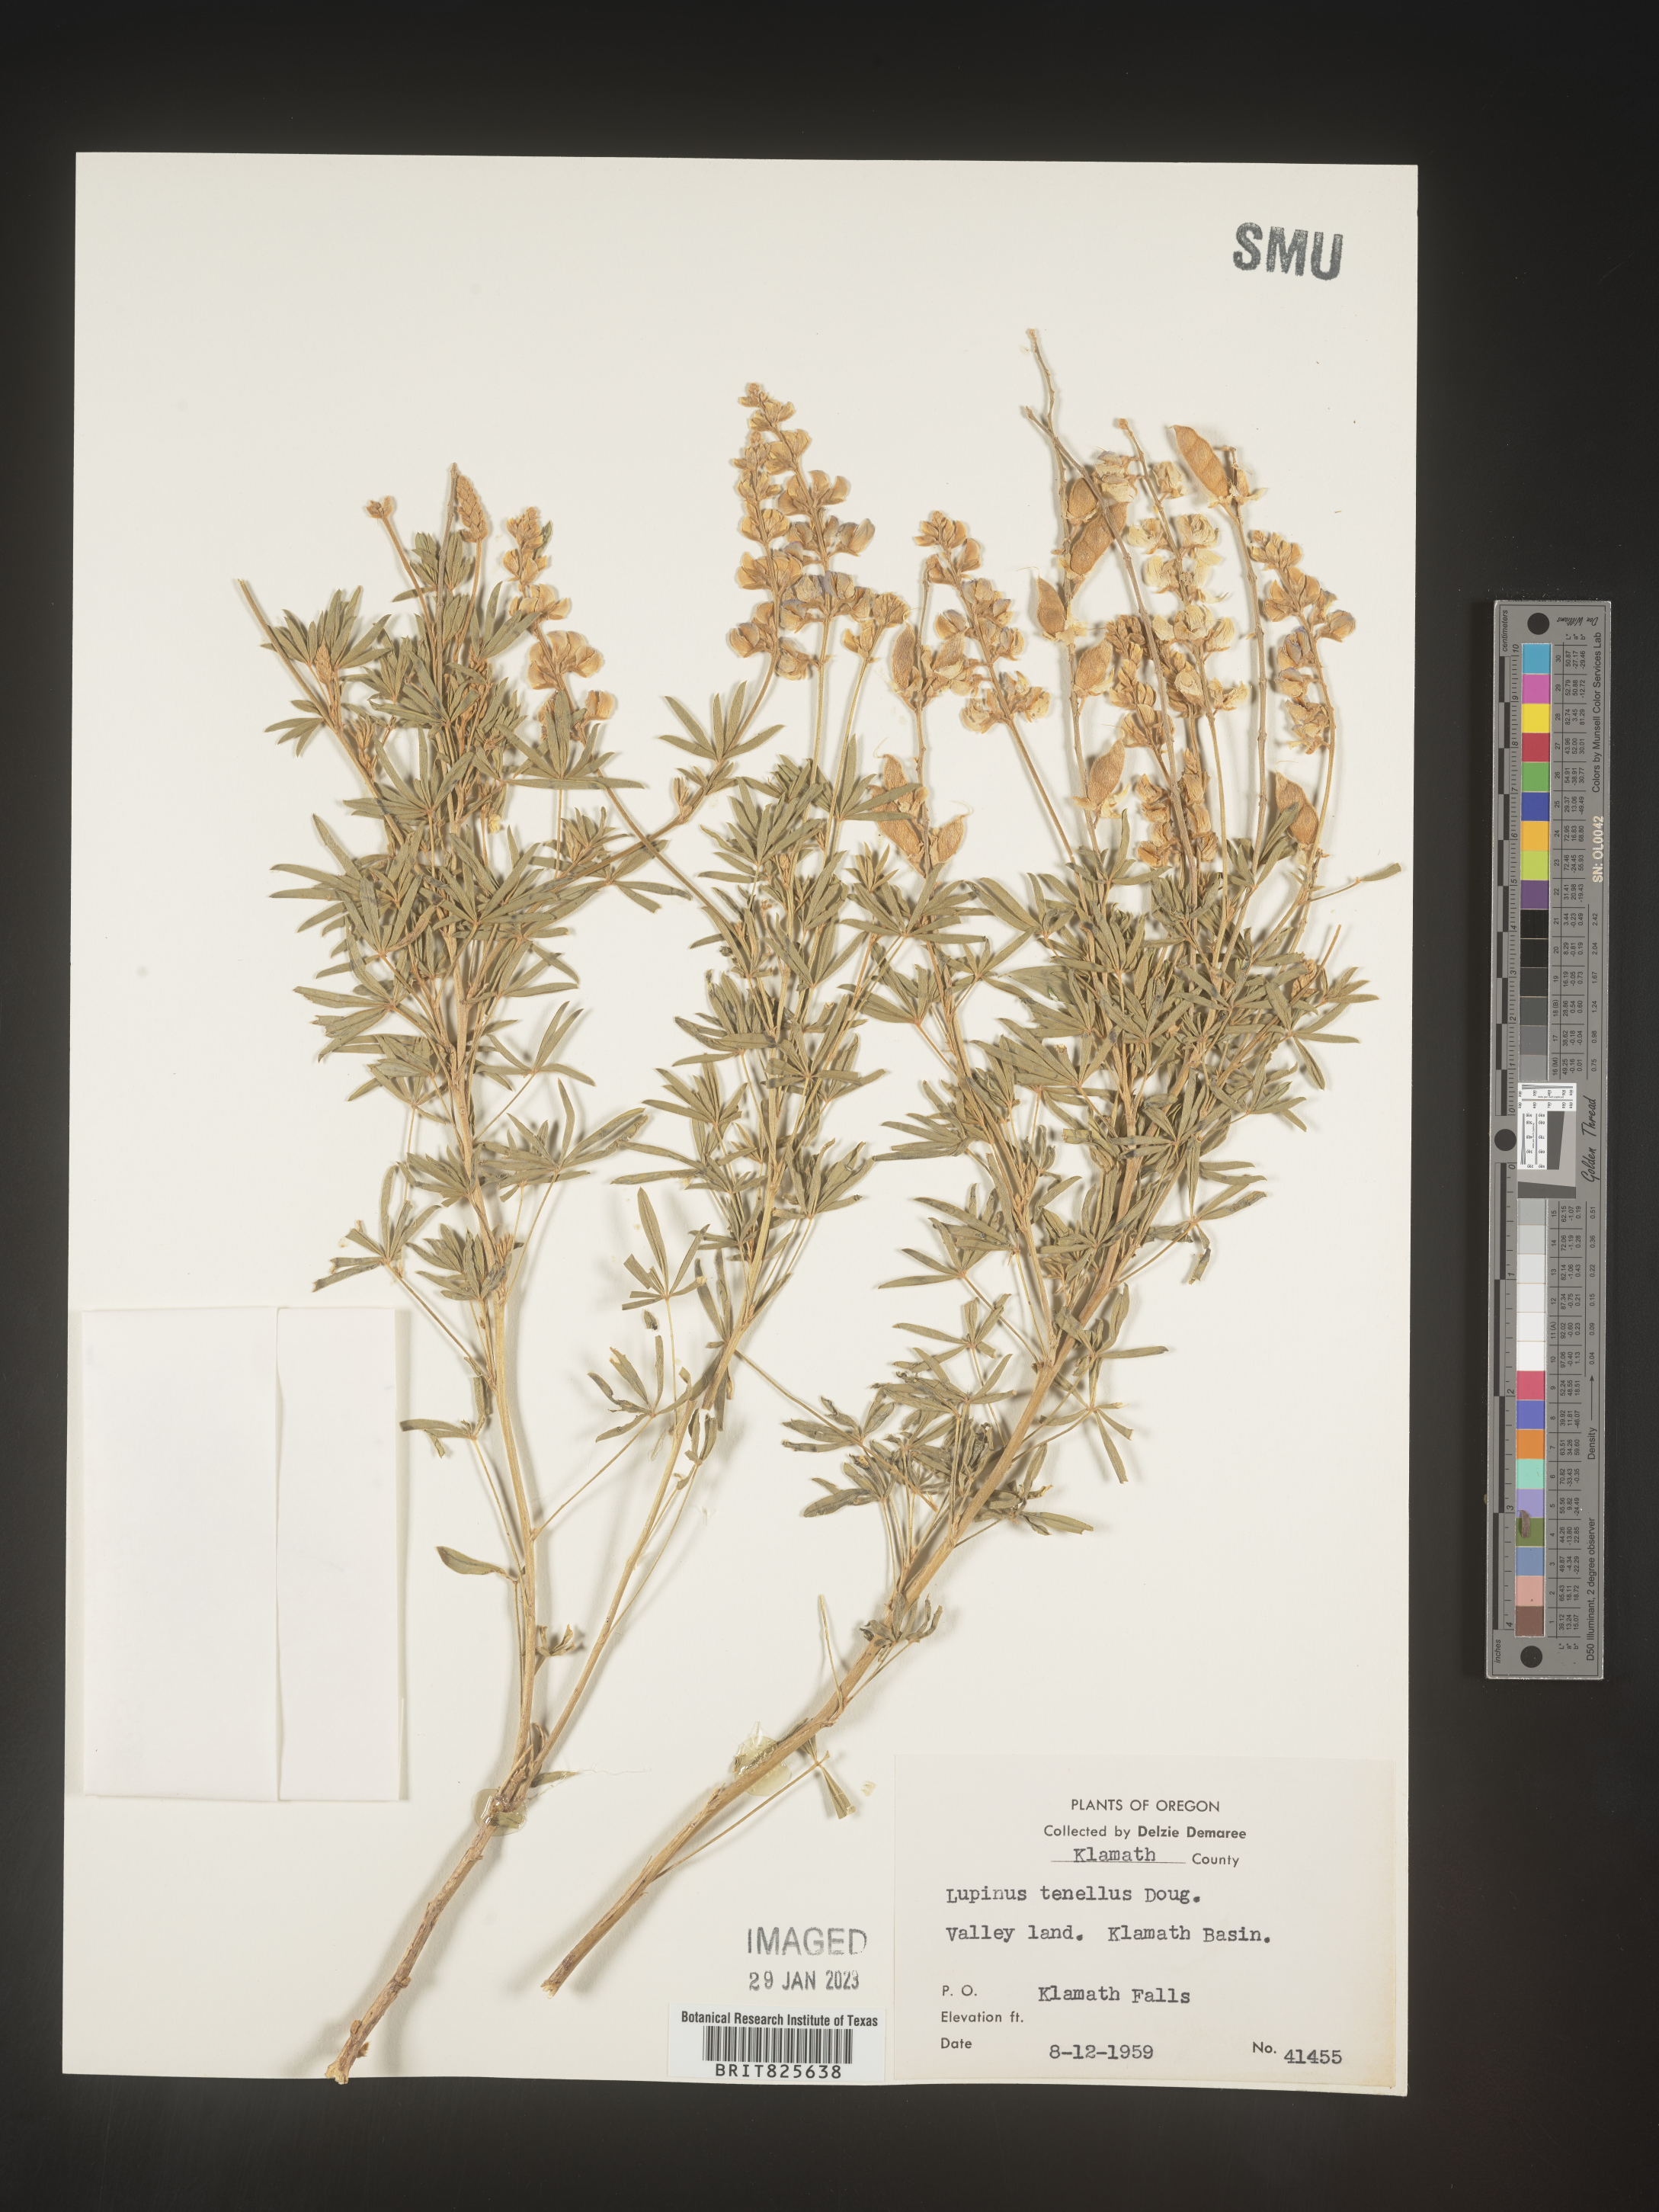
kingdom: Plantae
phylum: Tracheophyta
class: Magnoliopsida
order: Fabales
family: Fabaceae
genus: Lupinus
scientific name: Lupinus
